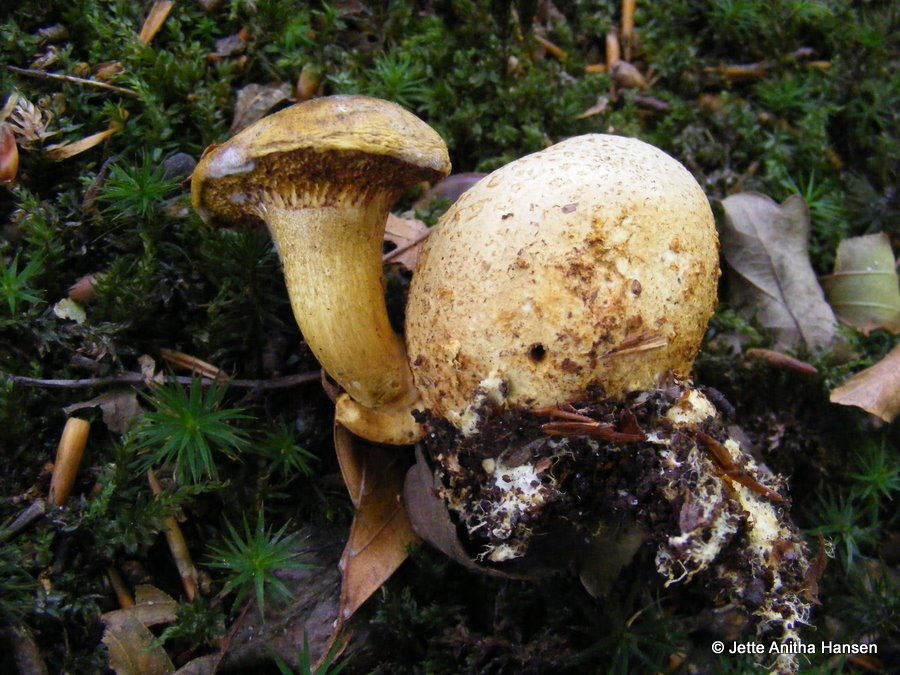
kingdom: Fungi
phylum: Basidiomycota
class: Agaricomycetes
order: Boletales
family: Boletaceae
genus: Pseudoboletus
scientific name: Pseudoboletus parasiticus
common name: snyltende rørhat
